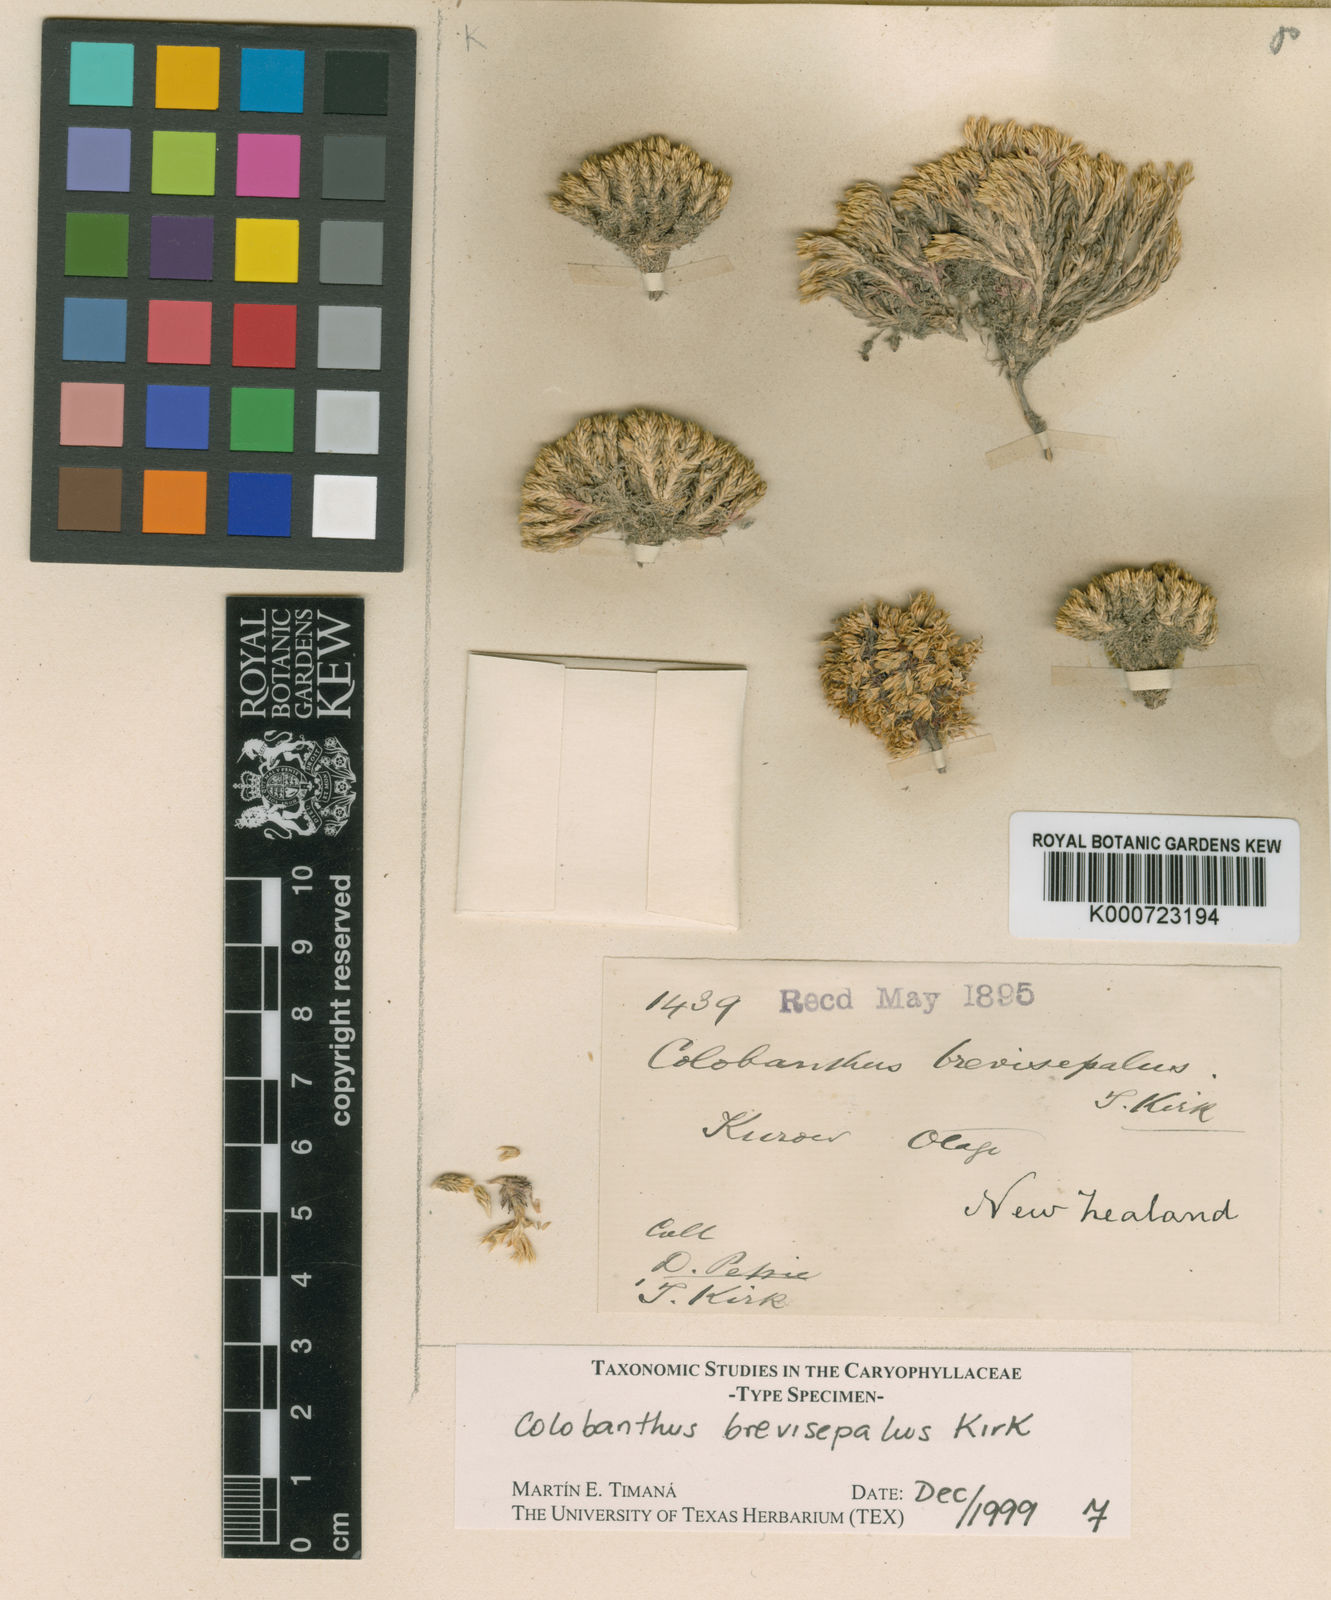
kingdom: Plantae
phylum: Tracheophyta
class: Magnoliopsida
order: Caryophyllales
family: Caryophyllaceae
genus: Colobanthus
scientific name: Colobanthus brevisepalus
